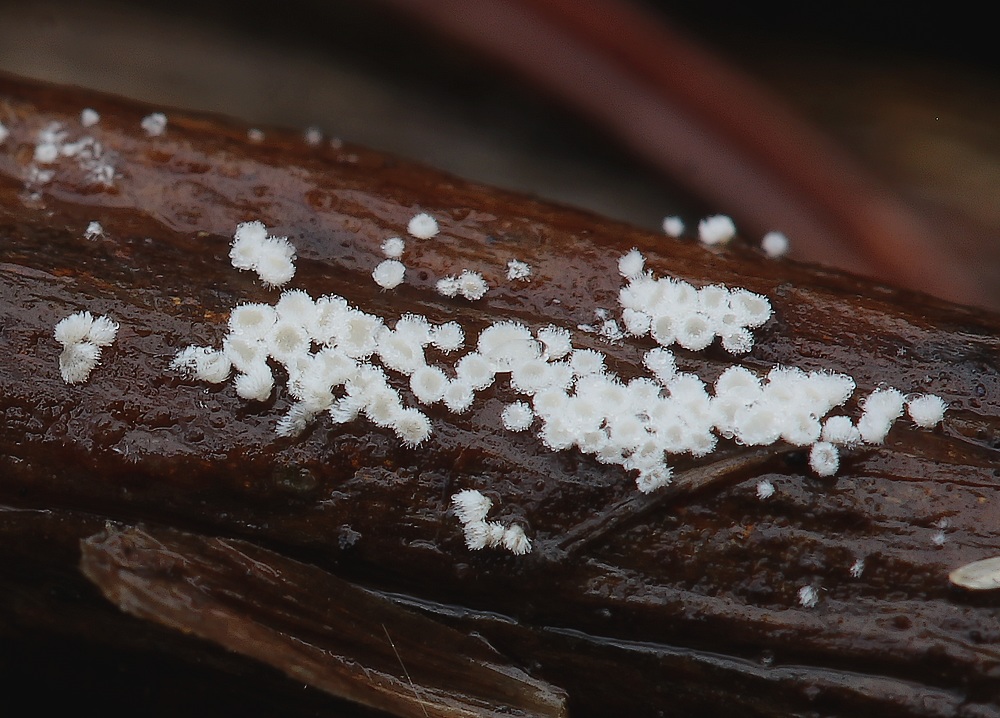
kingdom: Fungi
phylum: Basidiomycota
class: Agaricomycetes
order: Agaricales
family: Niaceae
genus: Lachnella
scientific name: Lachnella villosa
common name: hvid frynserede
